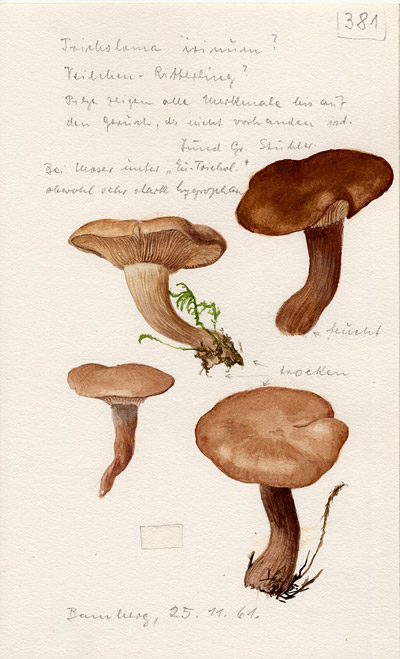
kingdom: Fungi
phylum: Basidiomycota
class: Agaricomycetes
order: Agaricales
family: Tricholomataceae
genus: Lepista
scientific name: Lepista irina
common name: Flowery blewit
